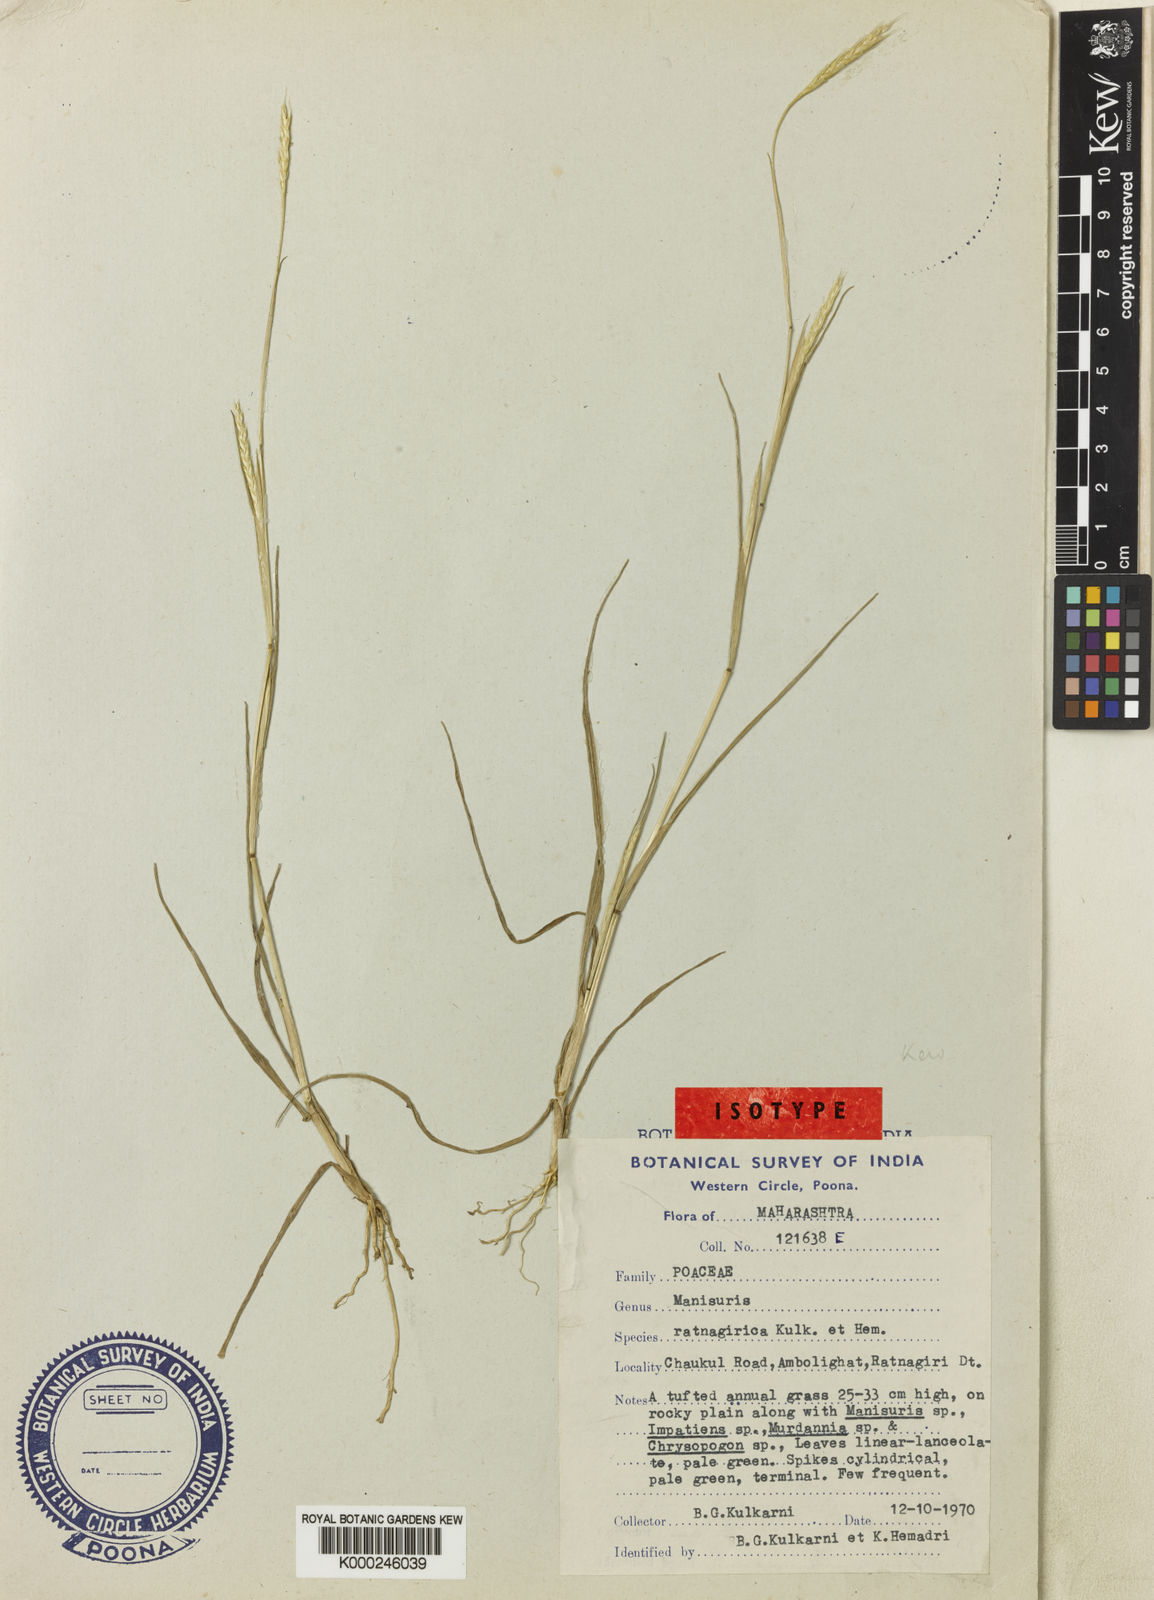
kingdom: Plantae
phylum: Tracheophyta
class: Liliopsida
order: Poales
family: Poaceae
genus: Glyphochloa
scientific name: Glyphochloa ratnagirica
